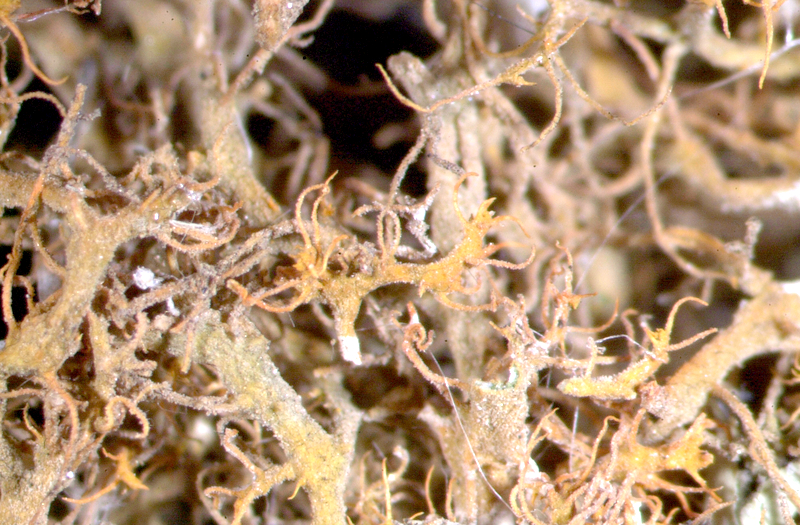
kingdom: Fungi
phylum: Ascomycota
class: Lecanoromycetes
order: Lecanorales
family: Parmeliaceae
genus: Xanthoparmelia
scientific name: Xanthoparmelia walteri
